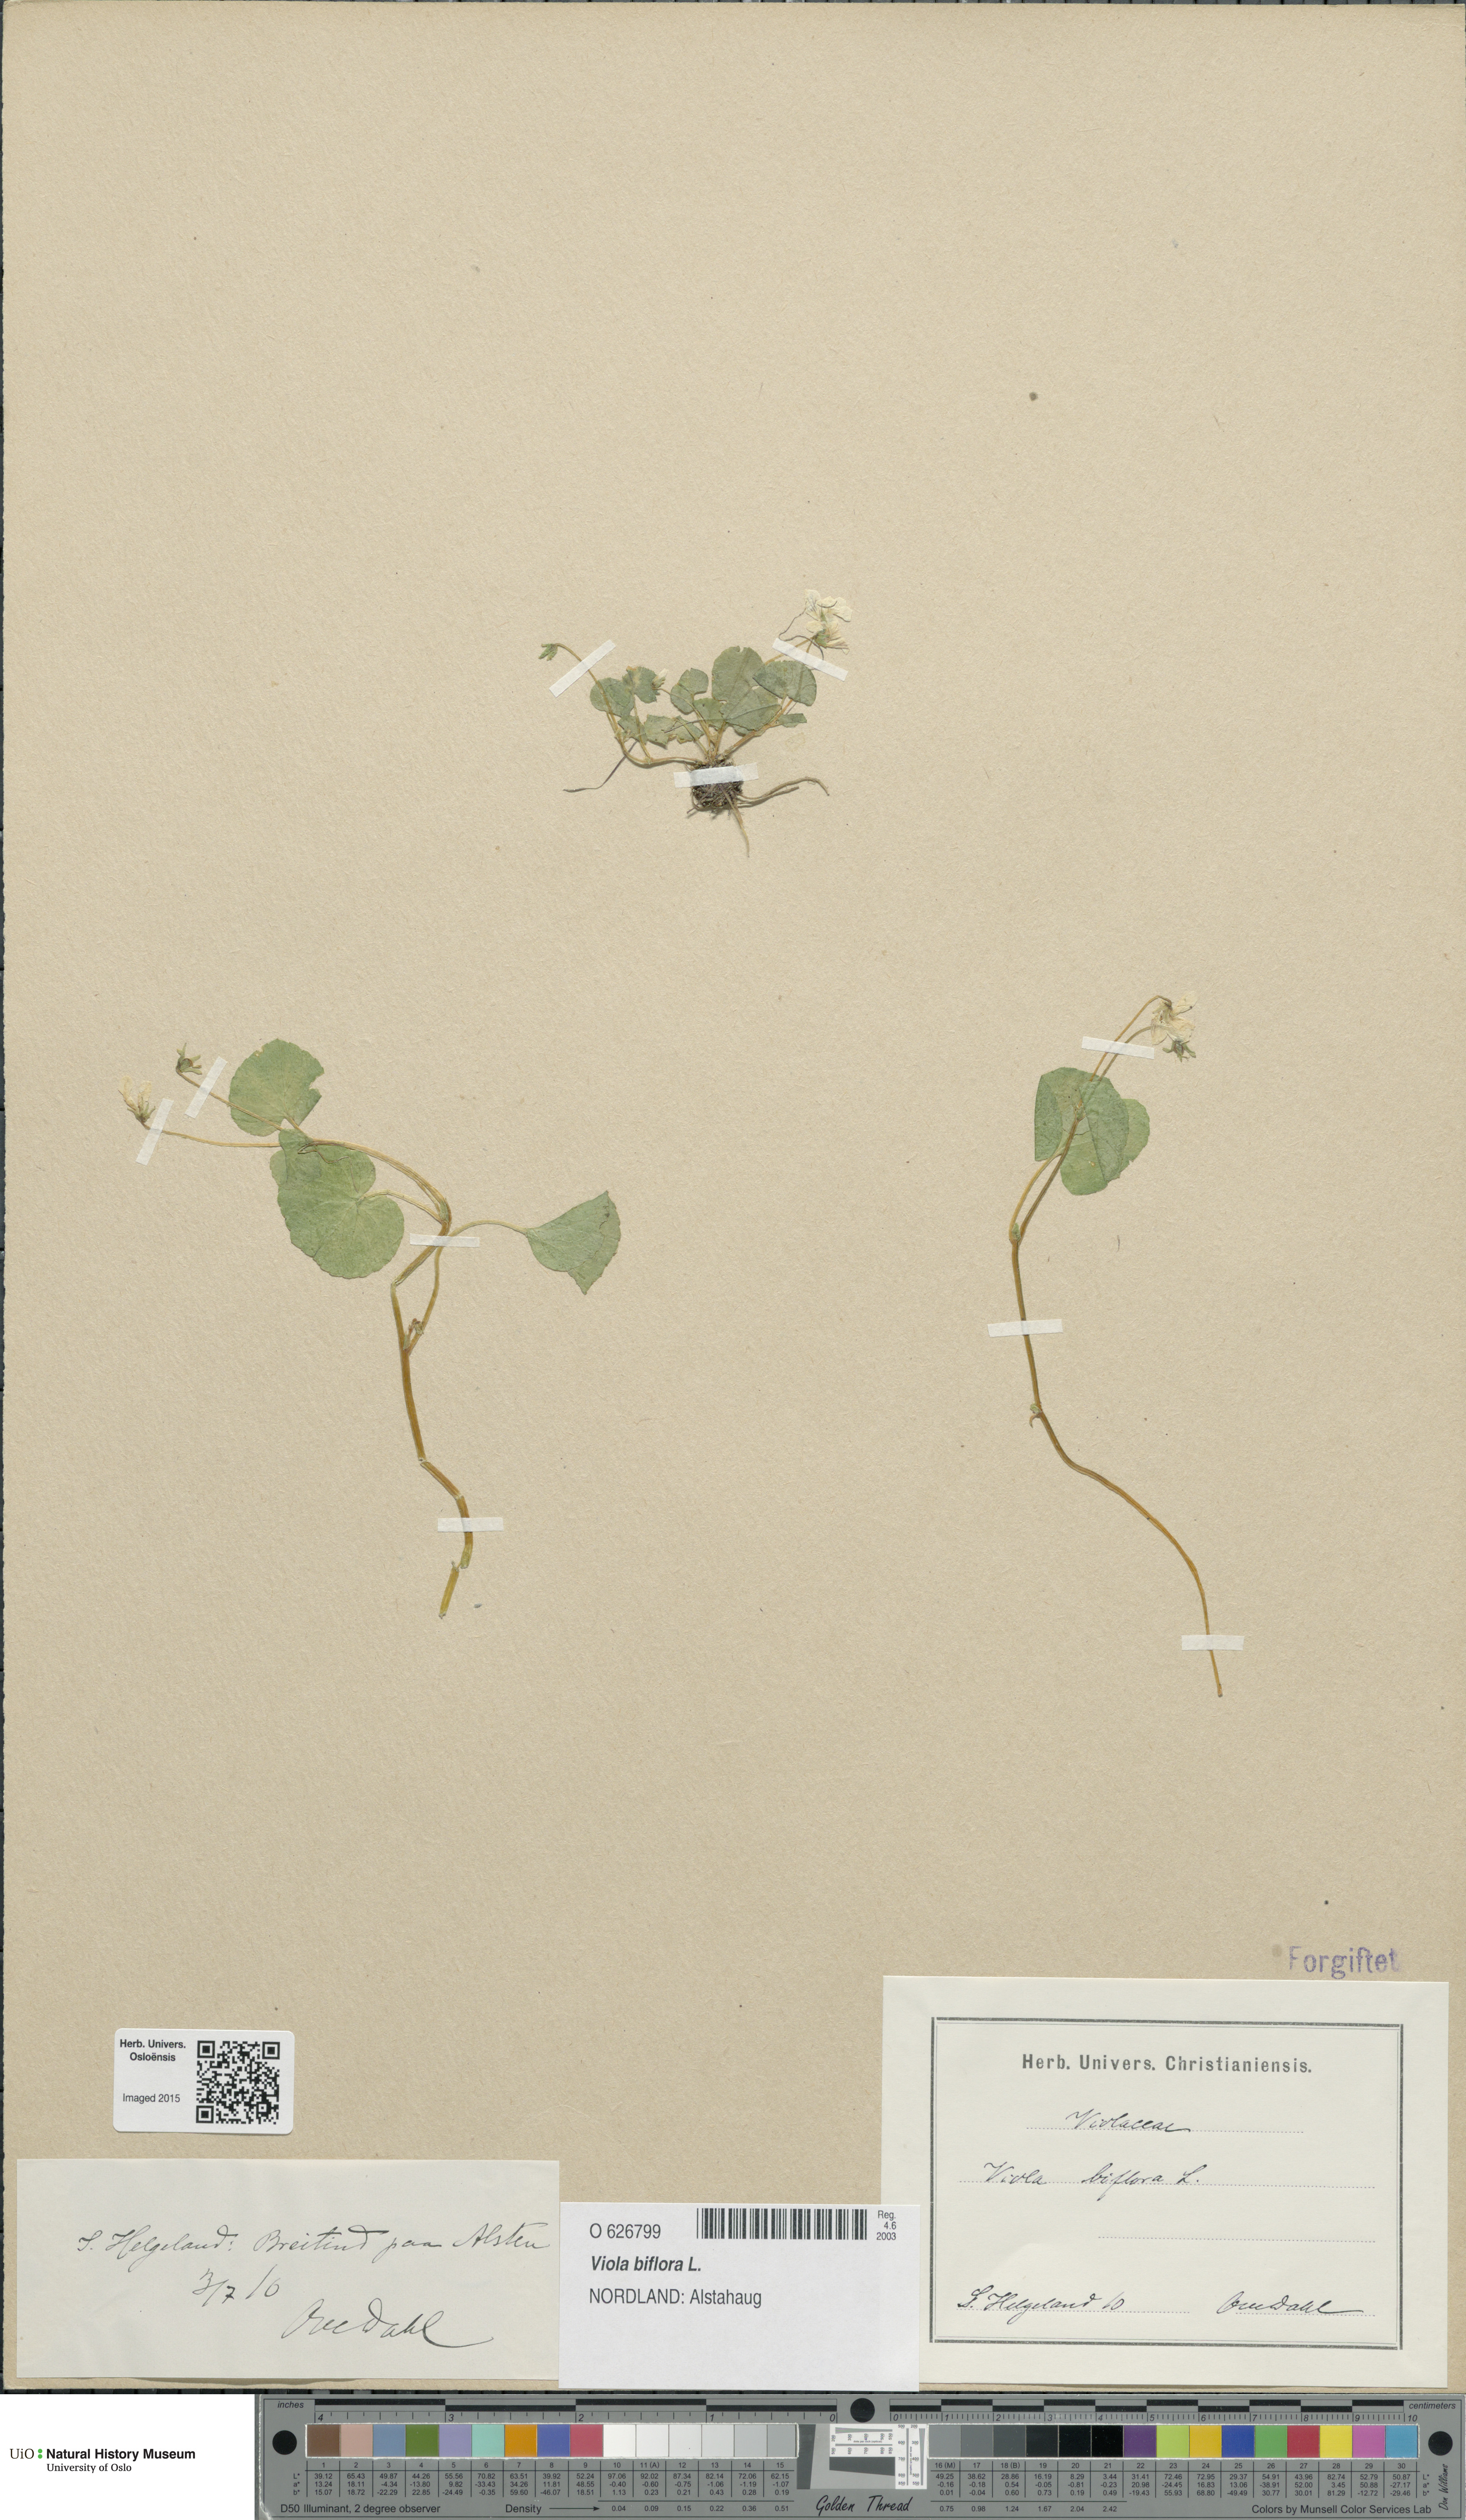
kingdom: Plantae
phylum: Tracheophyta
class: Magnoliopsida
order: Malpighiales
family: Violaceae
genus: Viola
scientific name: Viola biflora
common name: Alpine yellow violet
